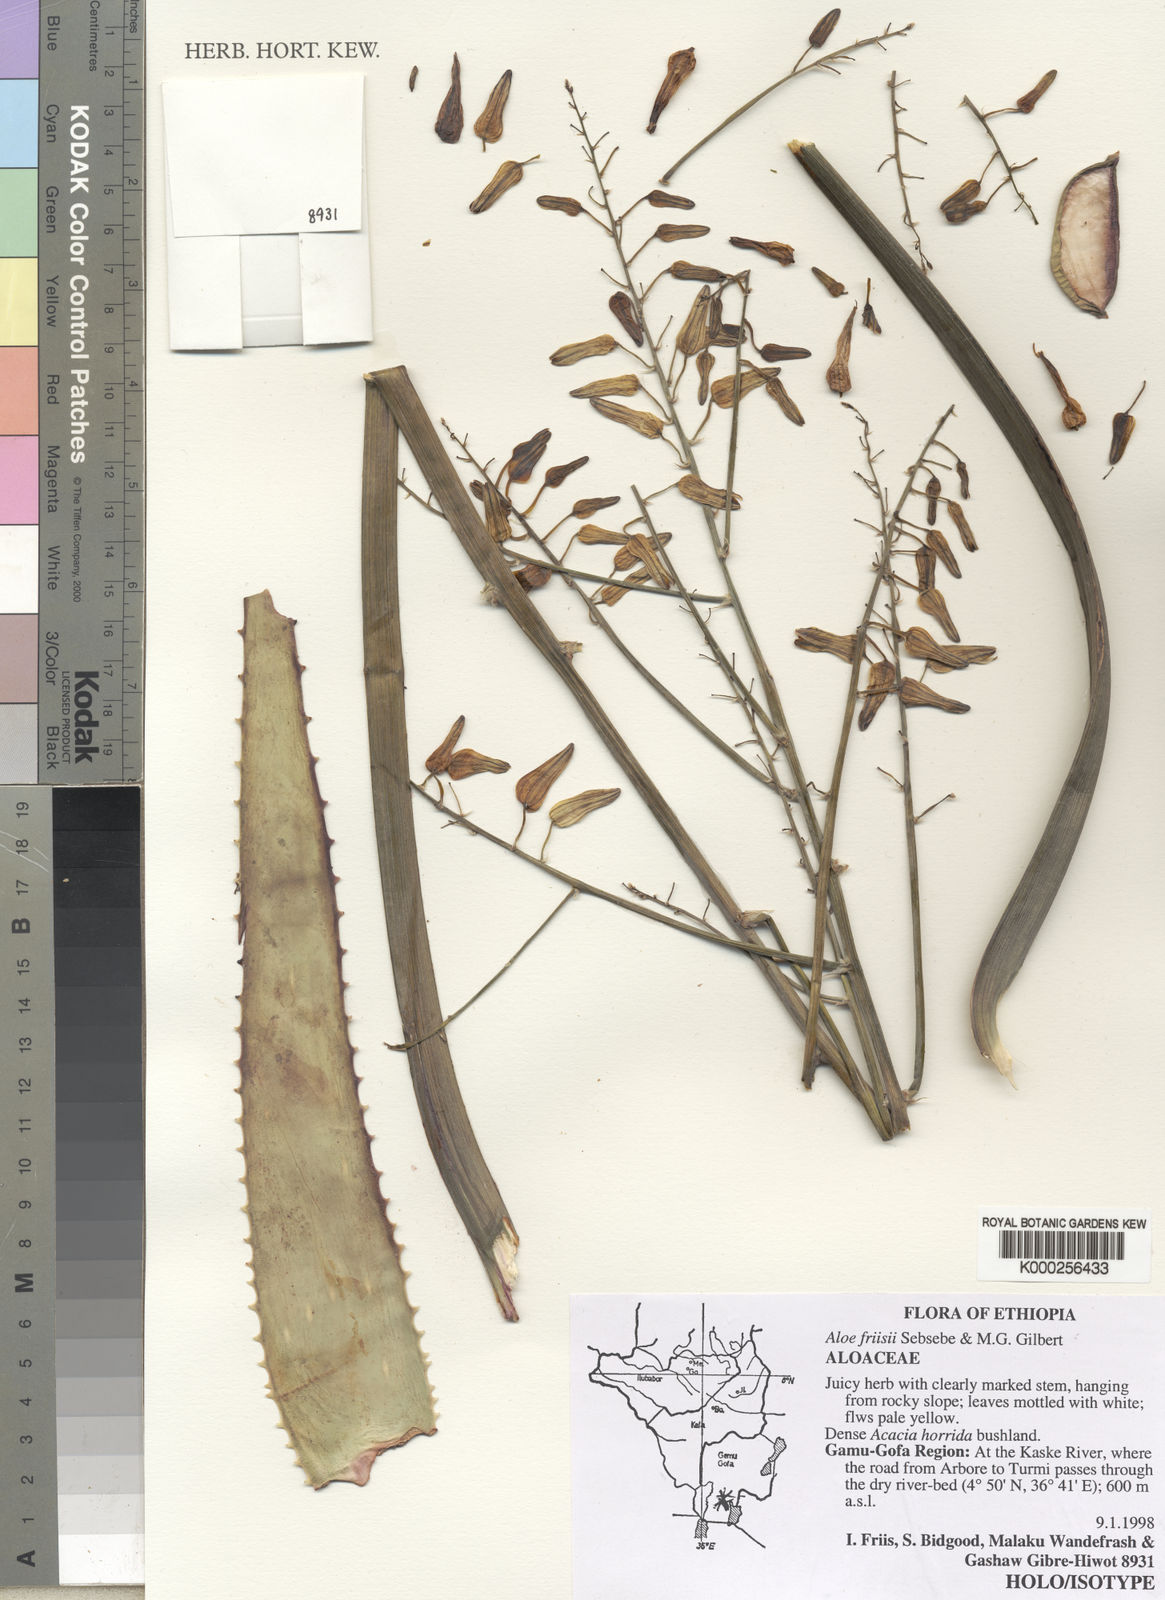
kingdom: Plantae
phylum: Tracheophyta
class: Liliopsida
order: Asparagales
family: Asphodelaceae
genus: Aloe
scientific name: Aloe friisii
